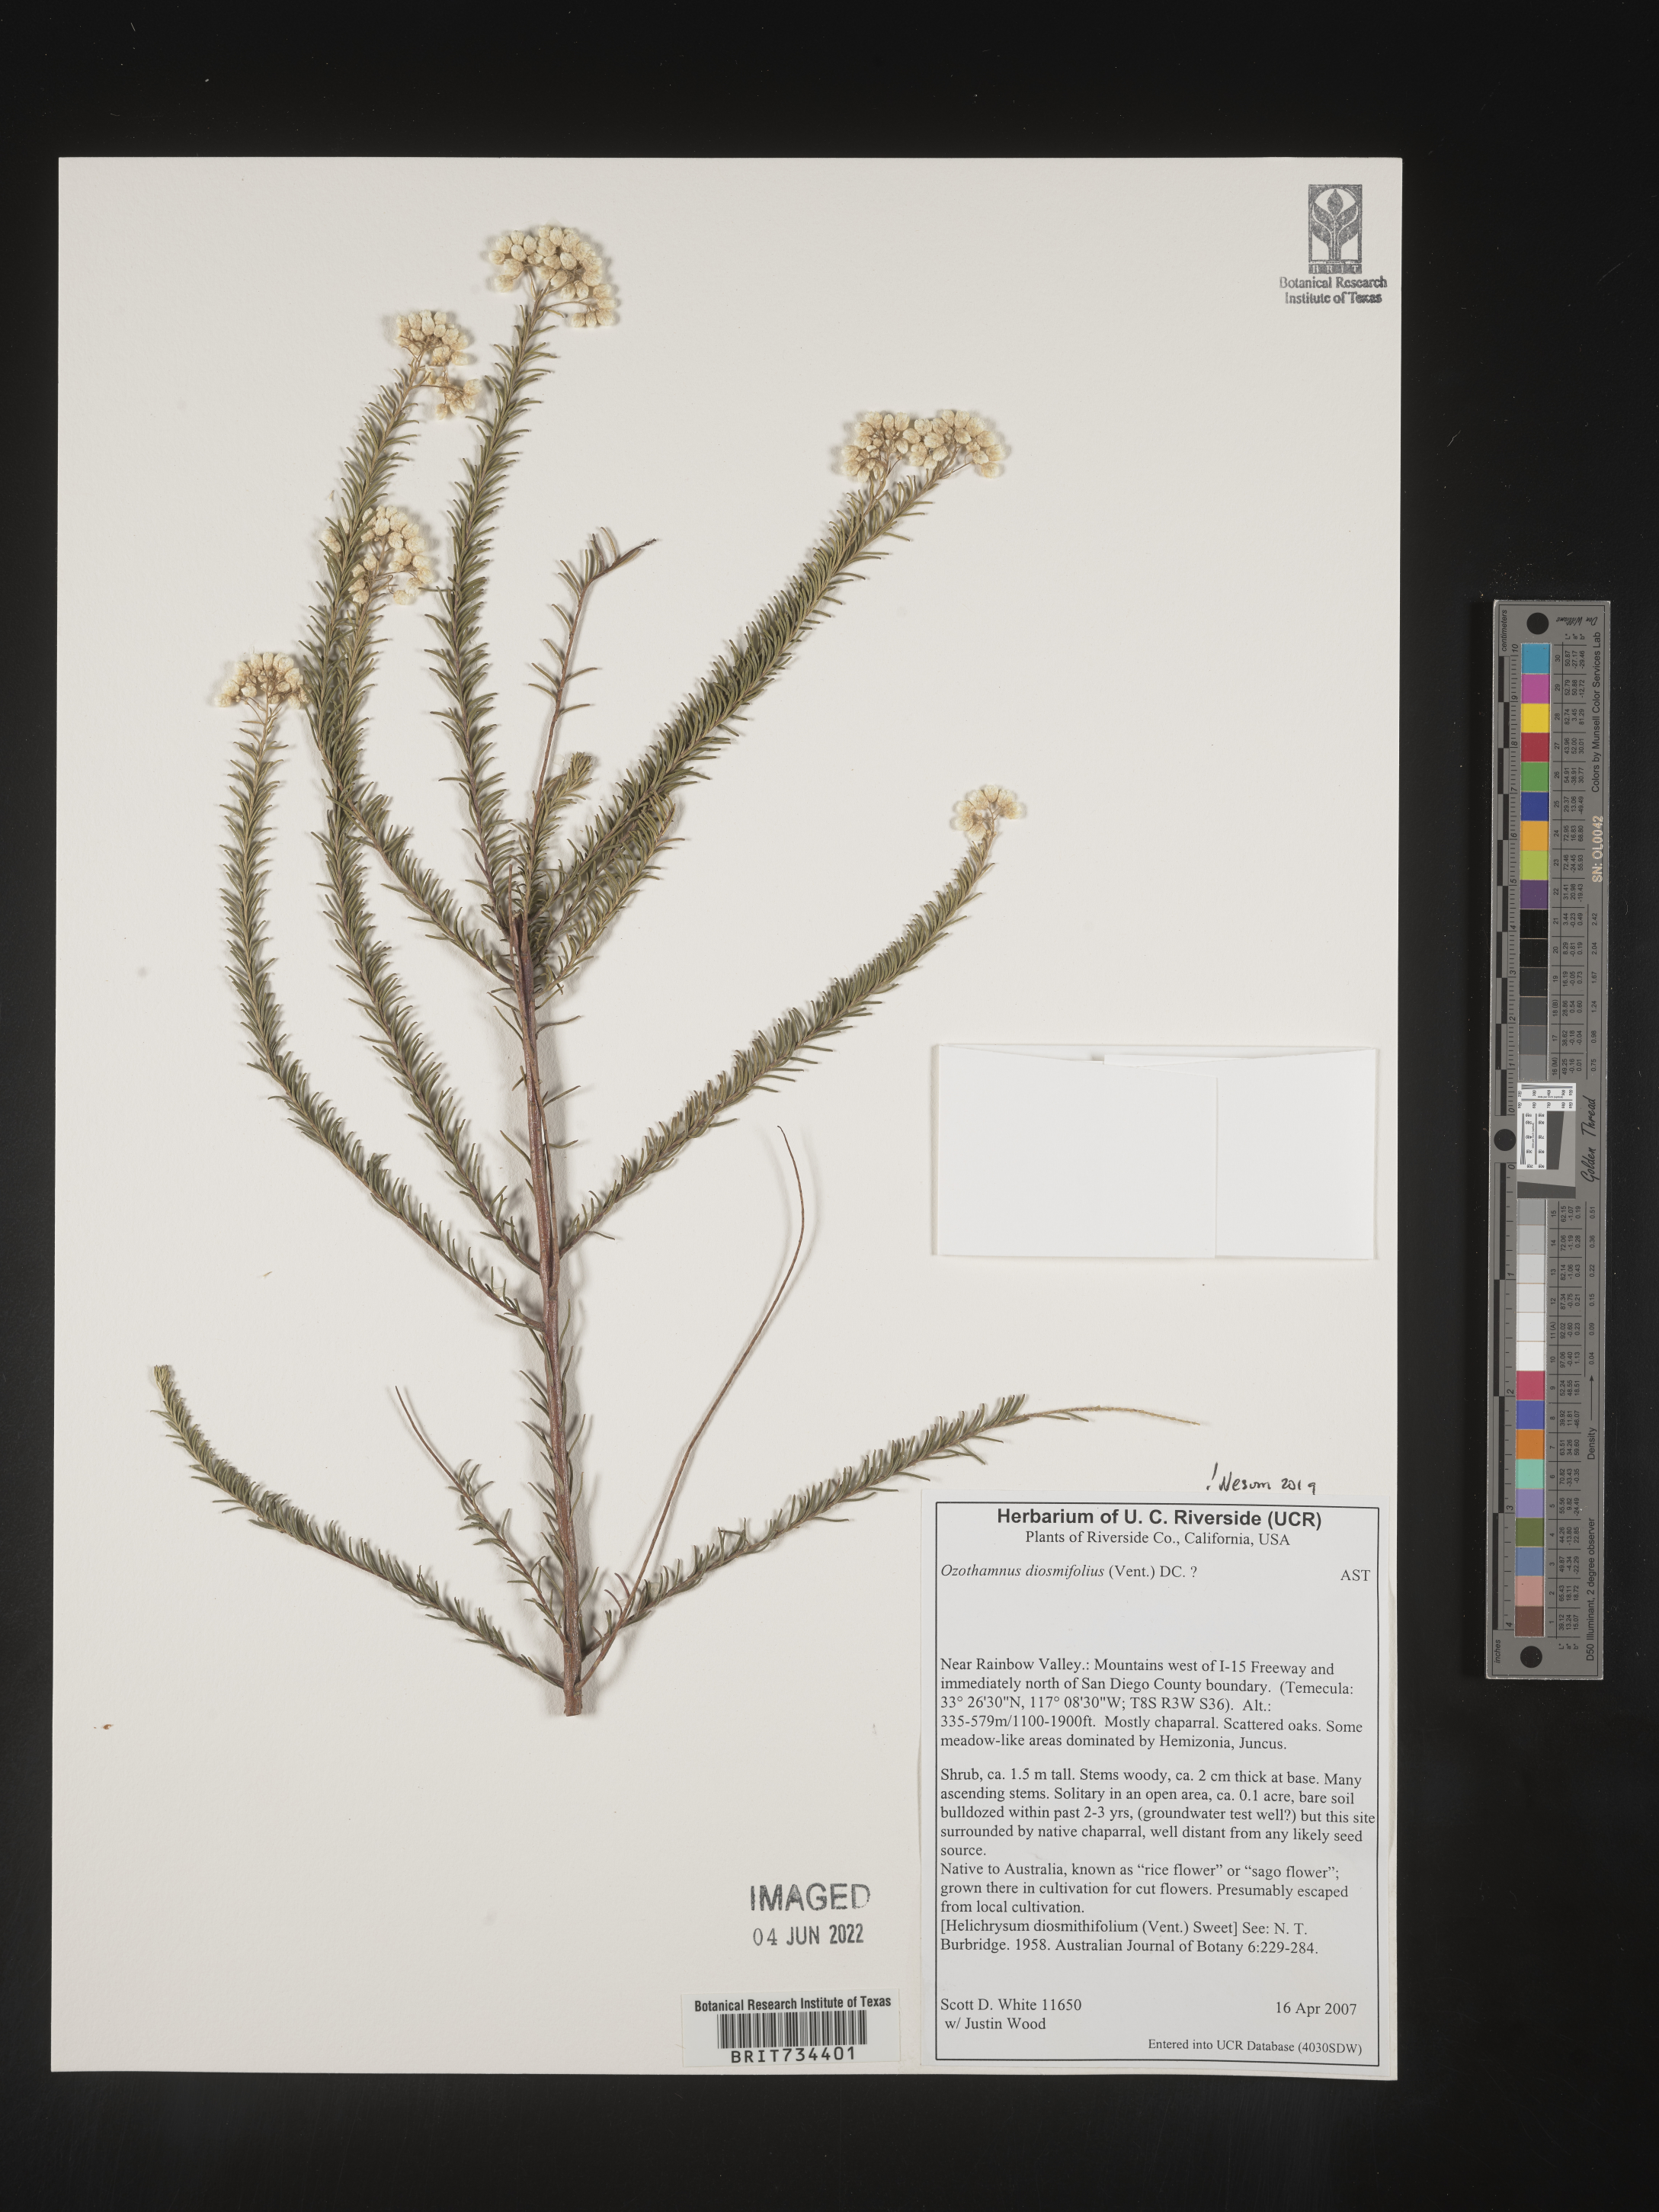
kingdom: Plantae
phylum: Tracheophyta
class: Magnoliopsida
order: Asterales
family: Asteraceae
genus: Ozothamnus
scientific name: Ozothamnus diosmifolius
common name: White-dogwood
